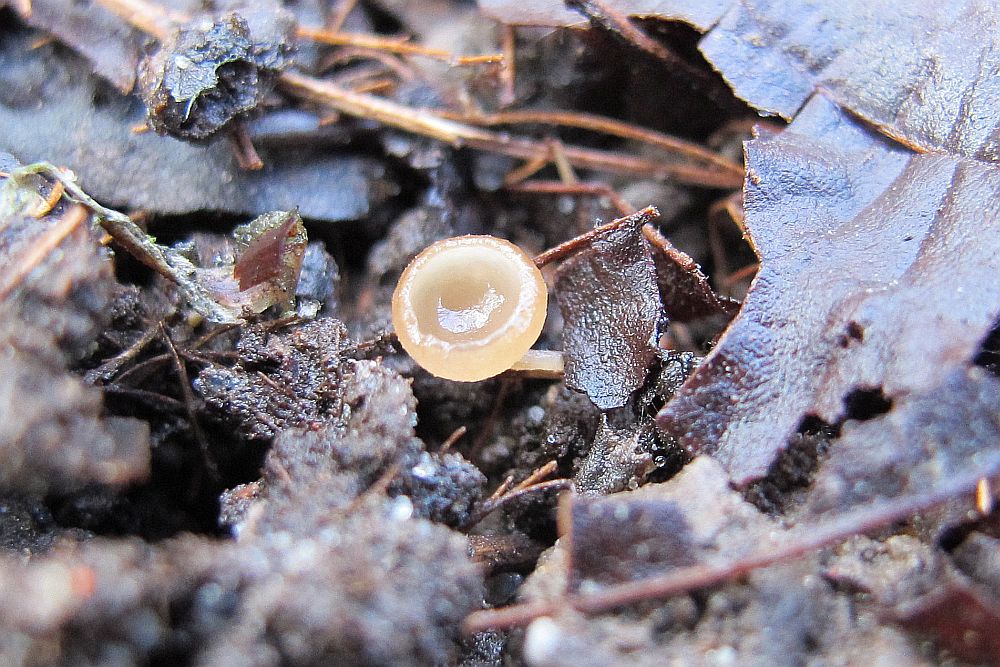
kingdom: Fungi
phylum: Ascomycota
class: Leotiomycetes
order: Helotiales
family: Sclerotiniaceae
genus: Ciboria
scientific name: Ciboria caucus
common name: rakle-knoldskive
